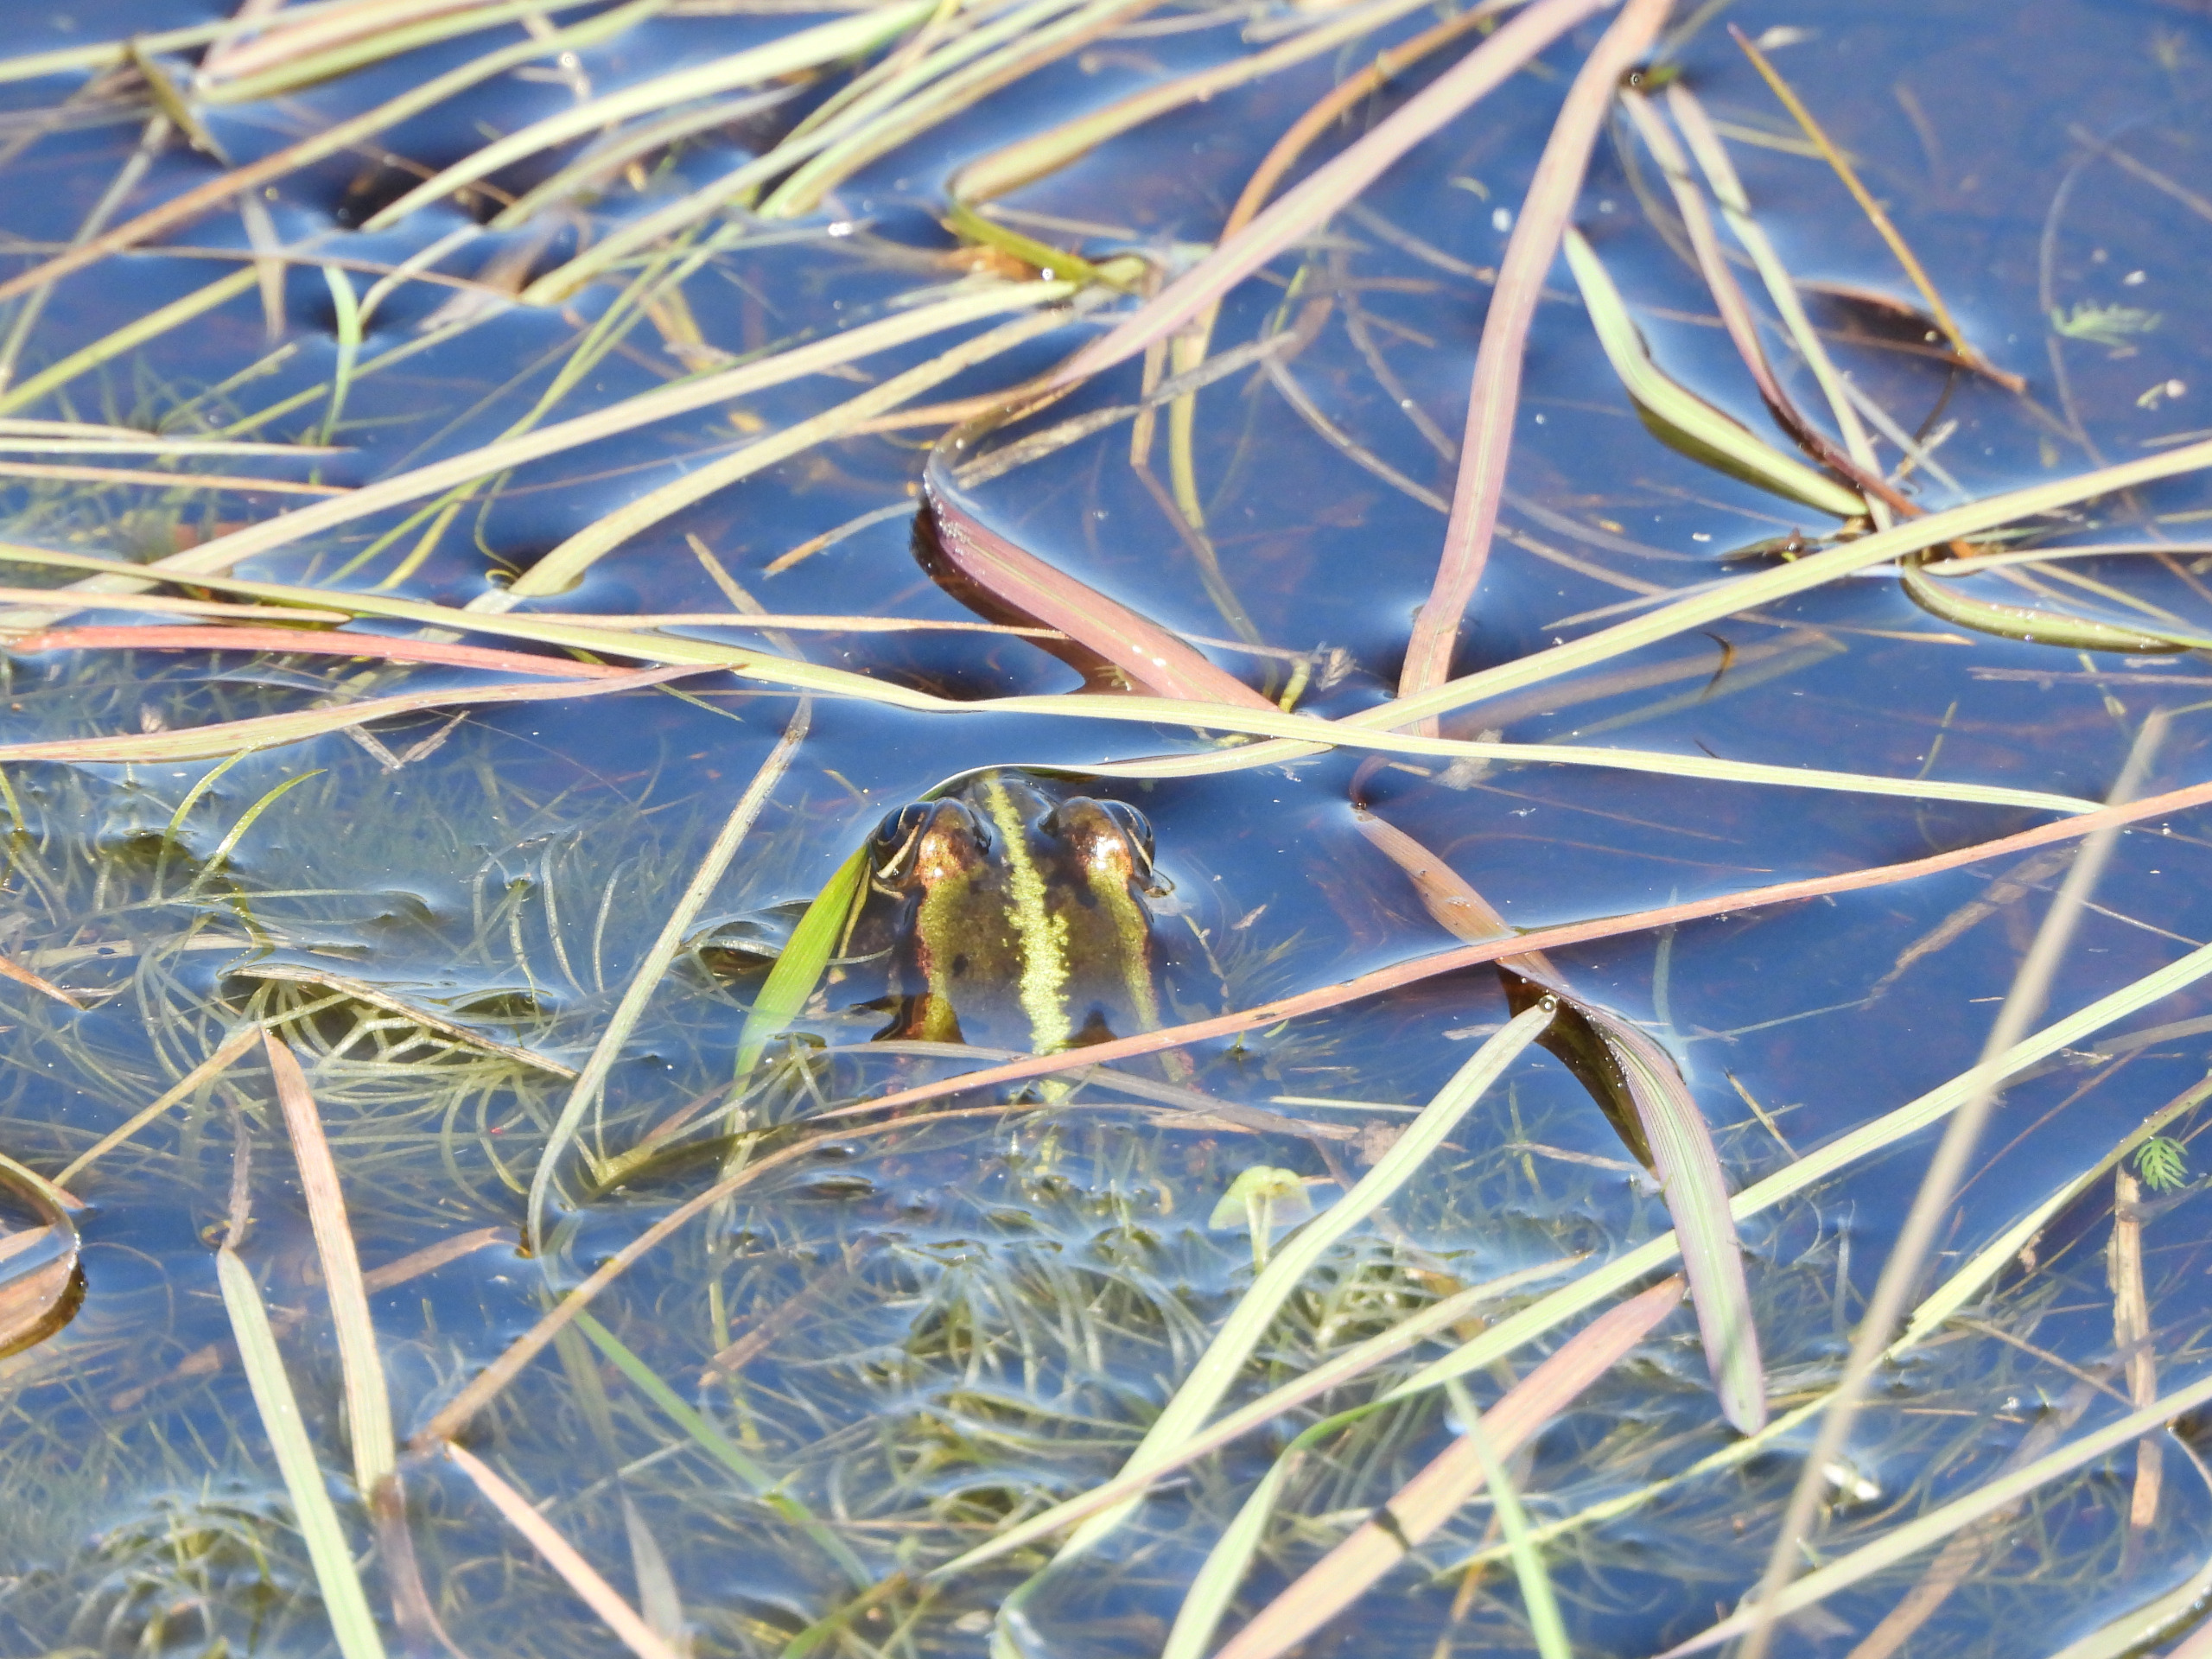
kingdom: Animalia
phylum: Chordata
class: Amphibia
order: Anura
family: Ranidae
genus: Pelophylax
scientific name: Pelophylax lessonae
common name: Grøn frø
